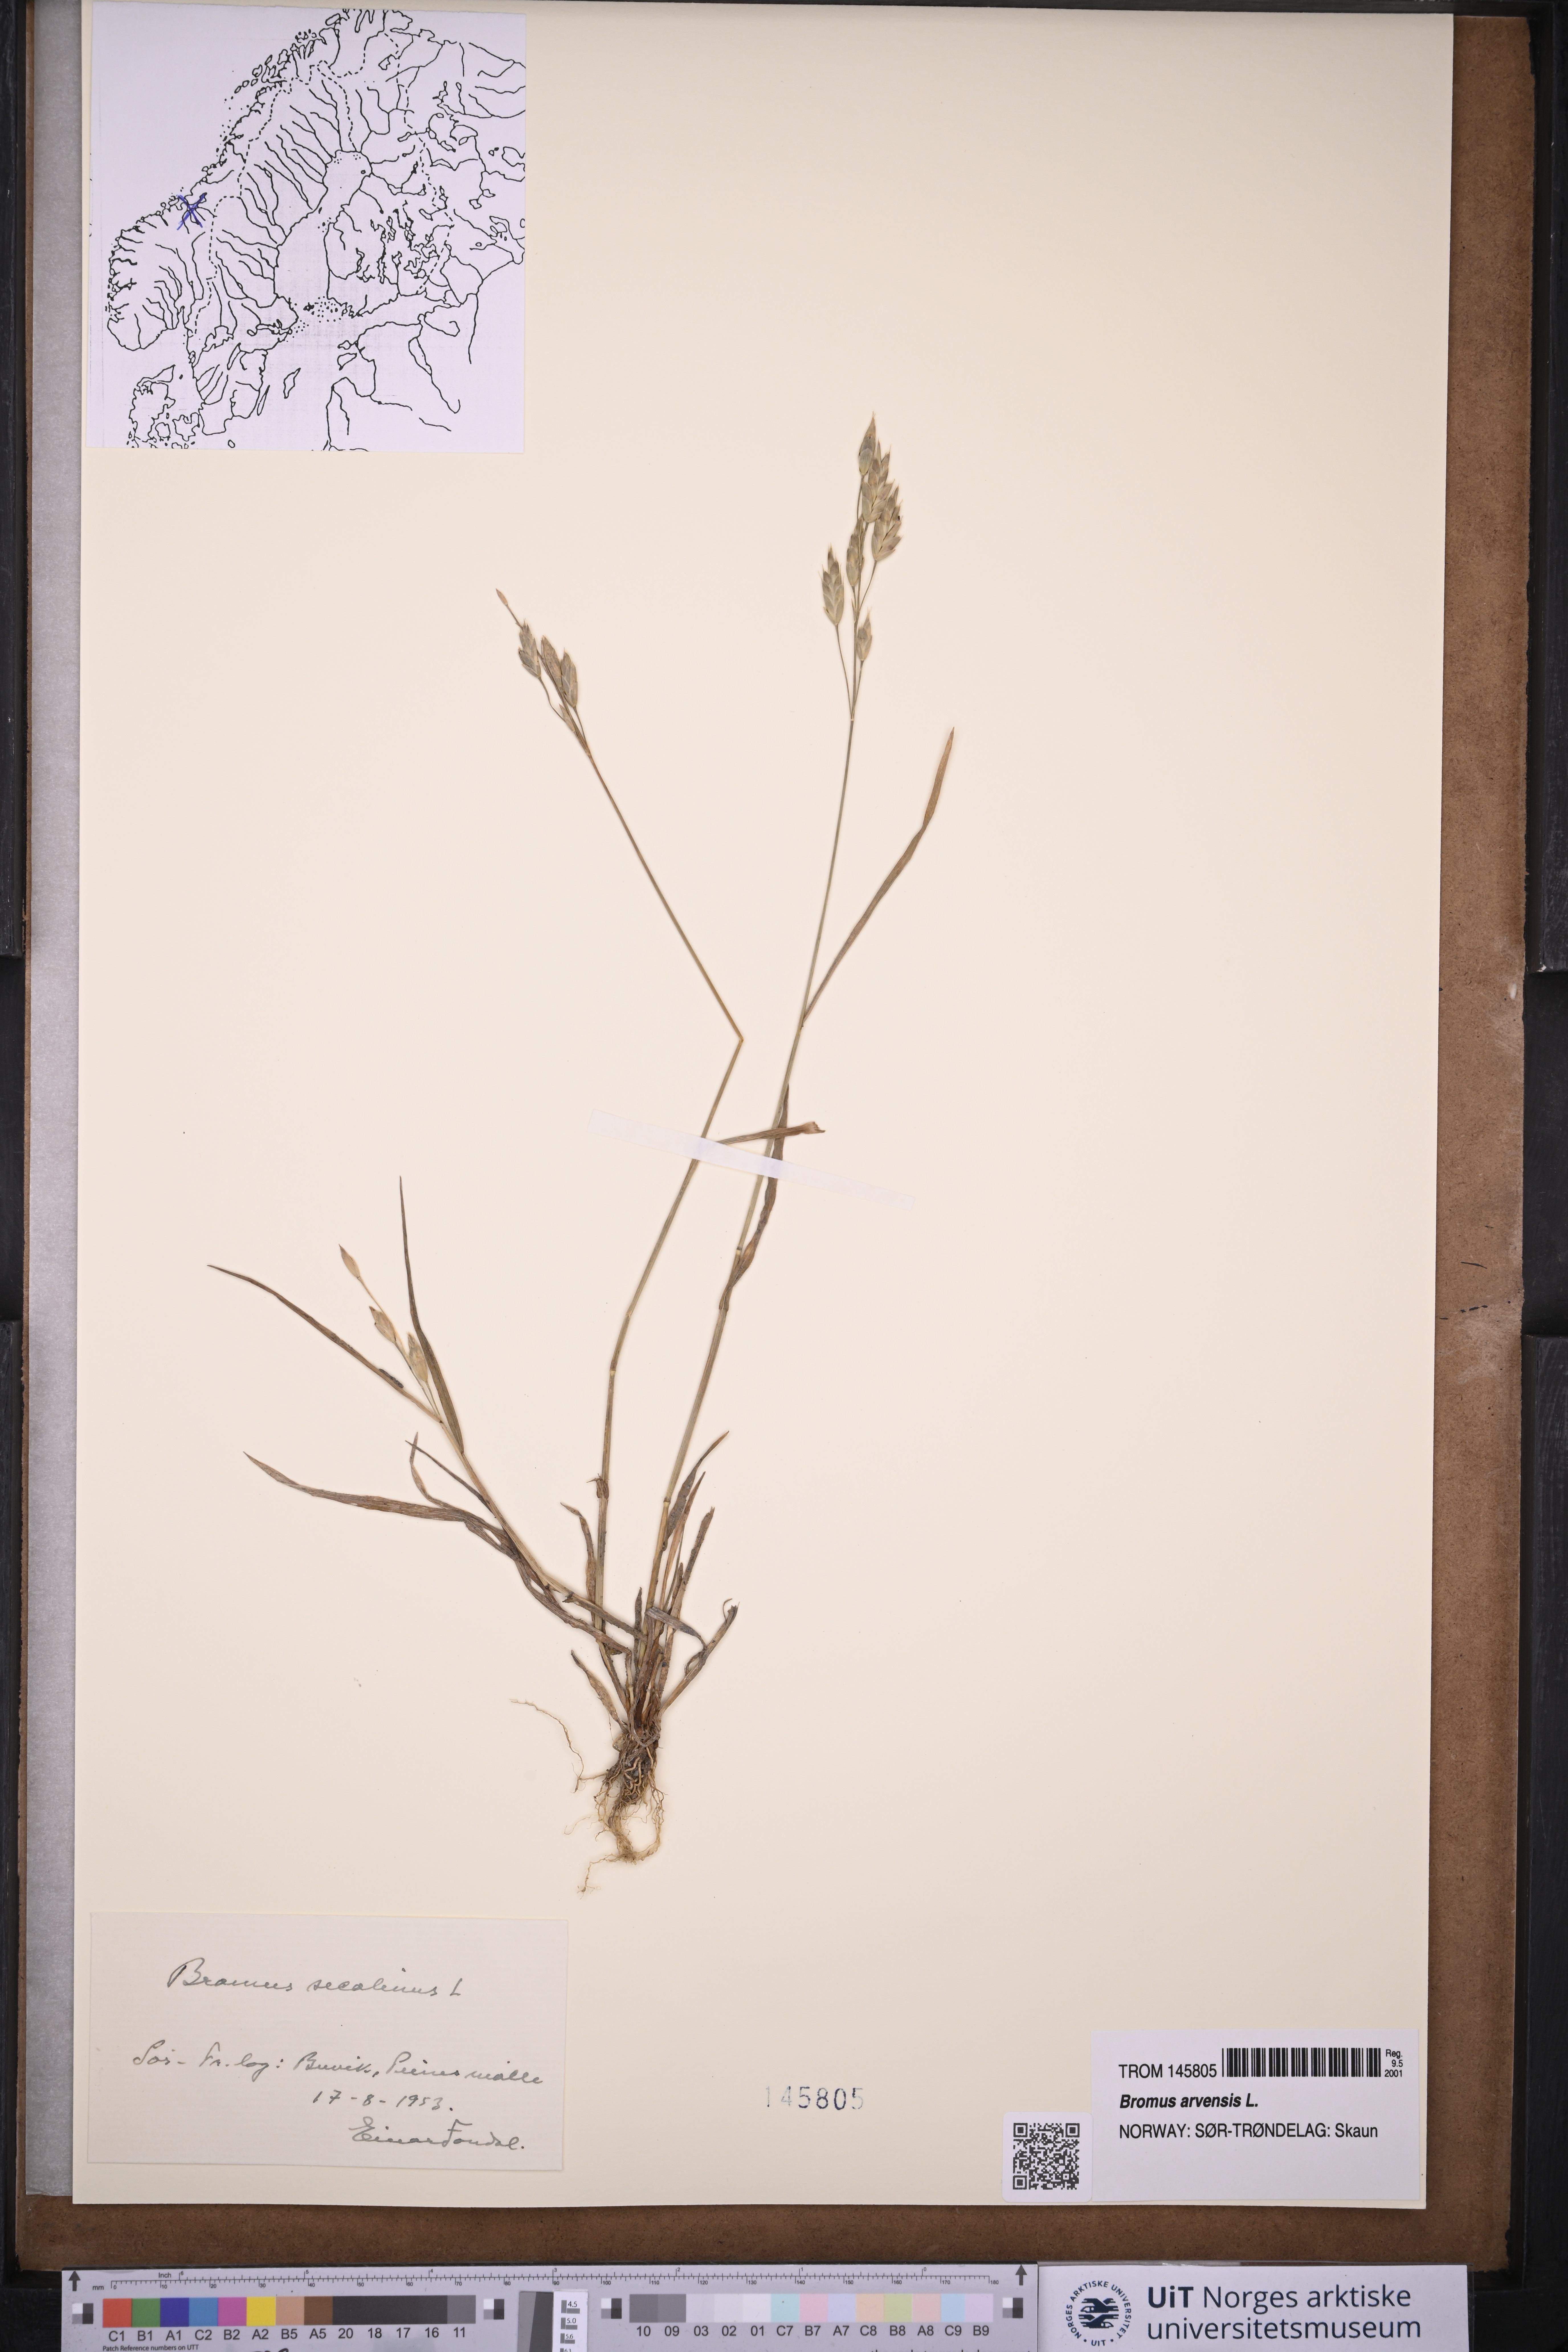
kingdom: Plantae
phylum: Tracheophyta
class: Liliopsida
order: Poales
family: Poaceae
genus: Bromus
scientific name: Bromus arvensis
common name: Field brome
